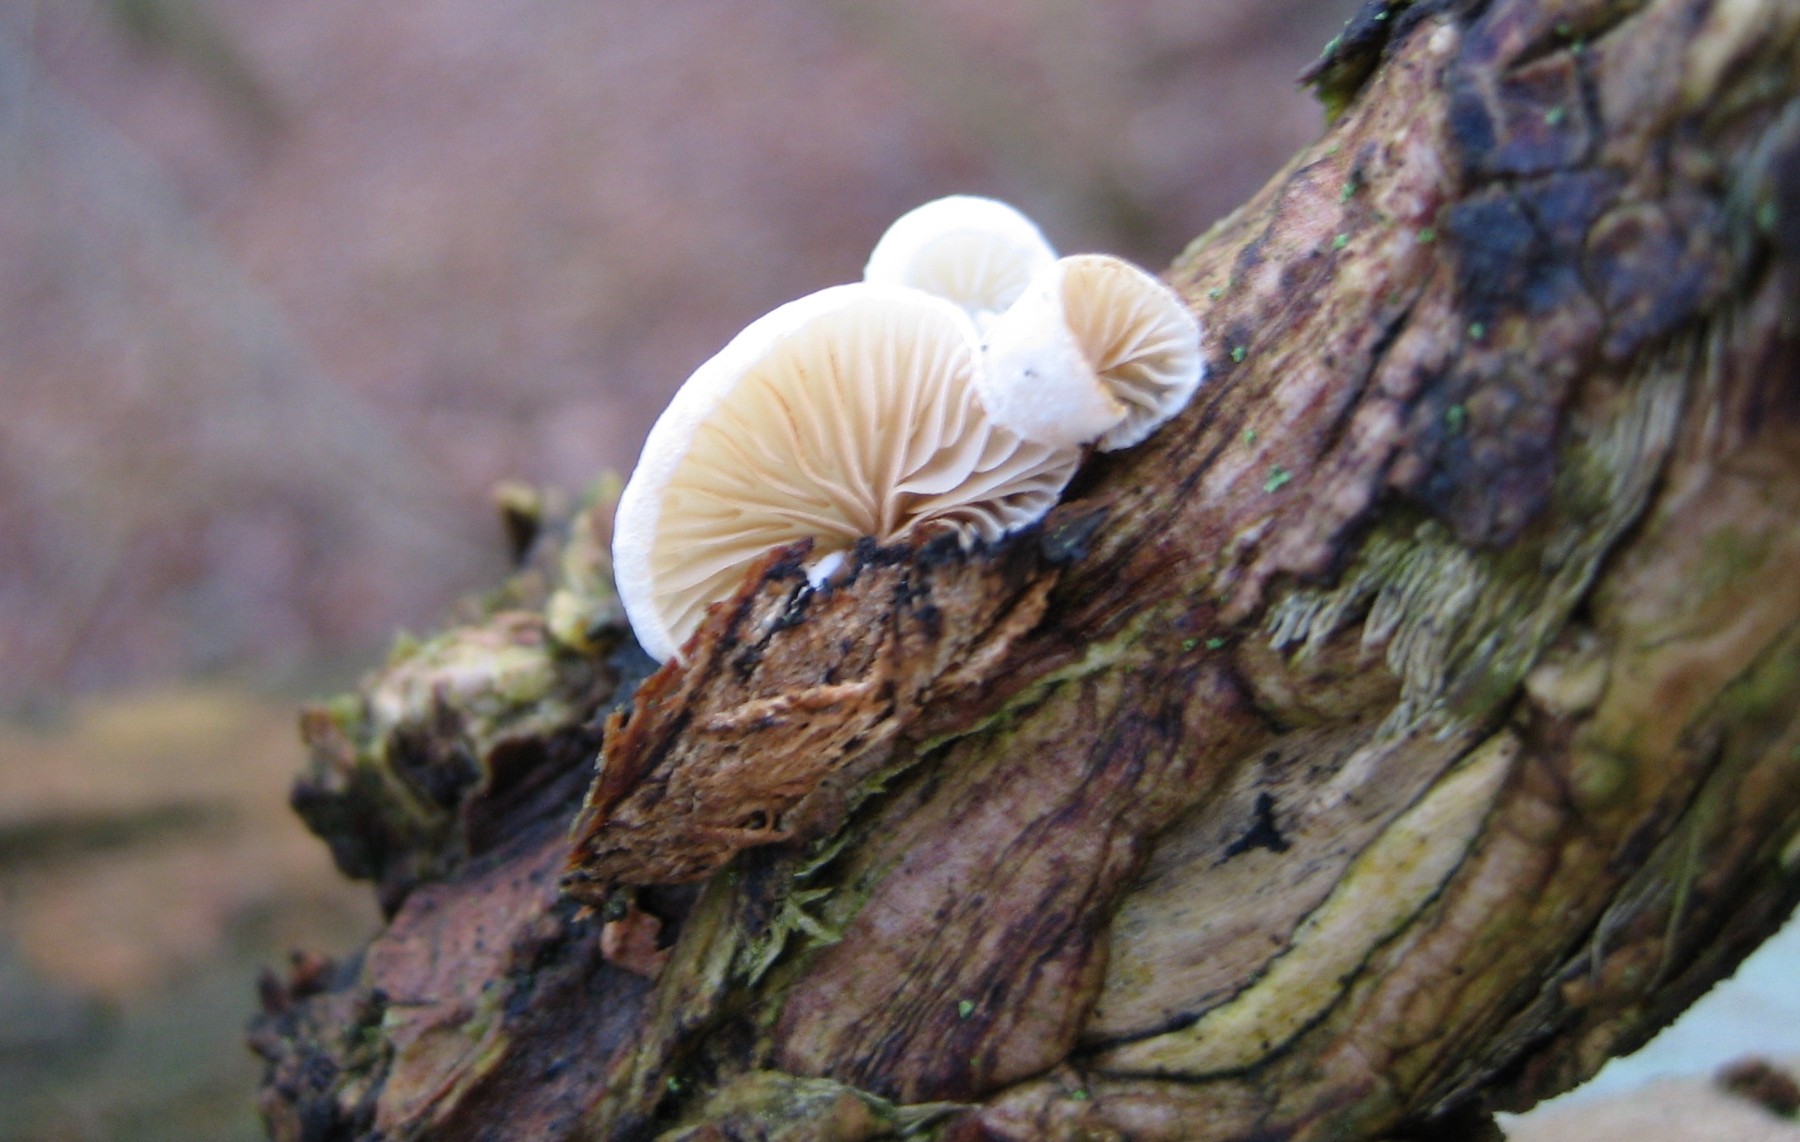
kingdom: Fungi
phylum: Basidiomycota
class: Agaricomycetes
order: Agaricales
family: Crepidotaceae
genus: Crepidotus
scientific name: Crepidotus
